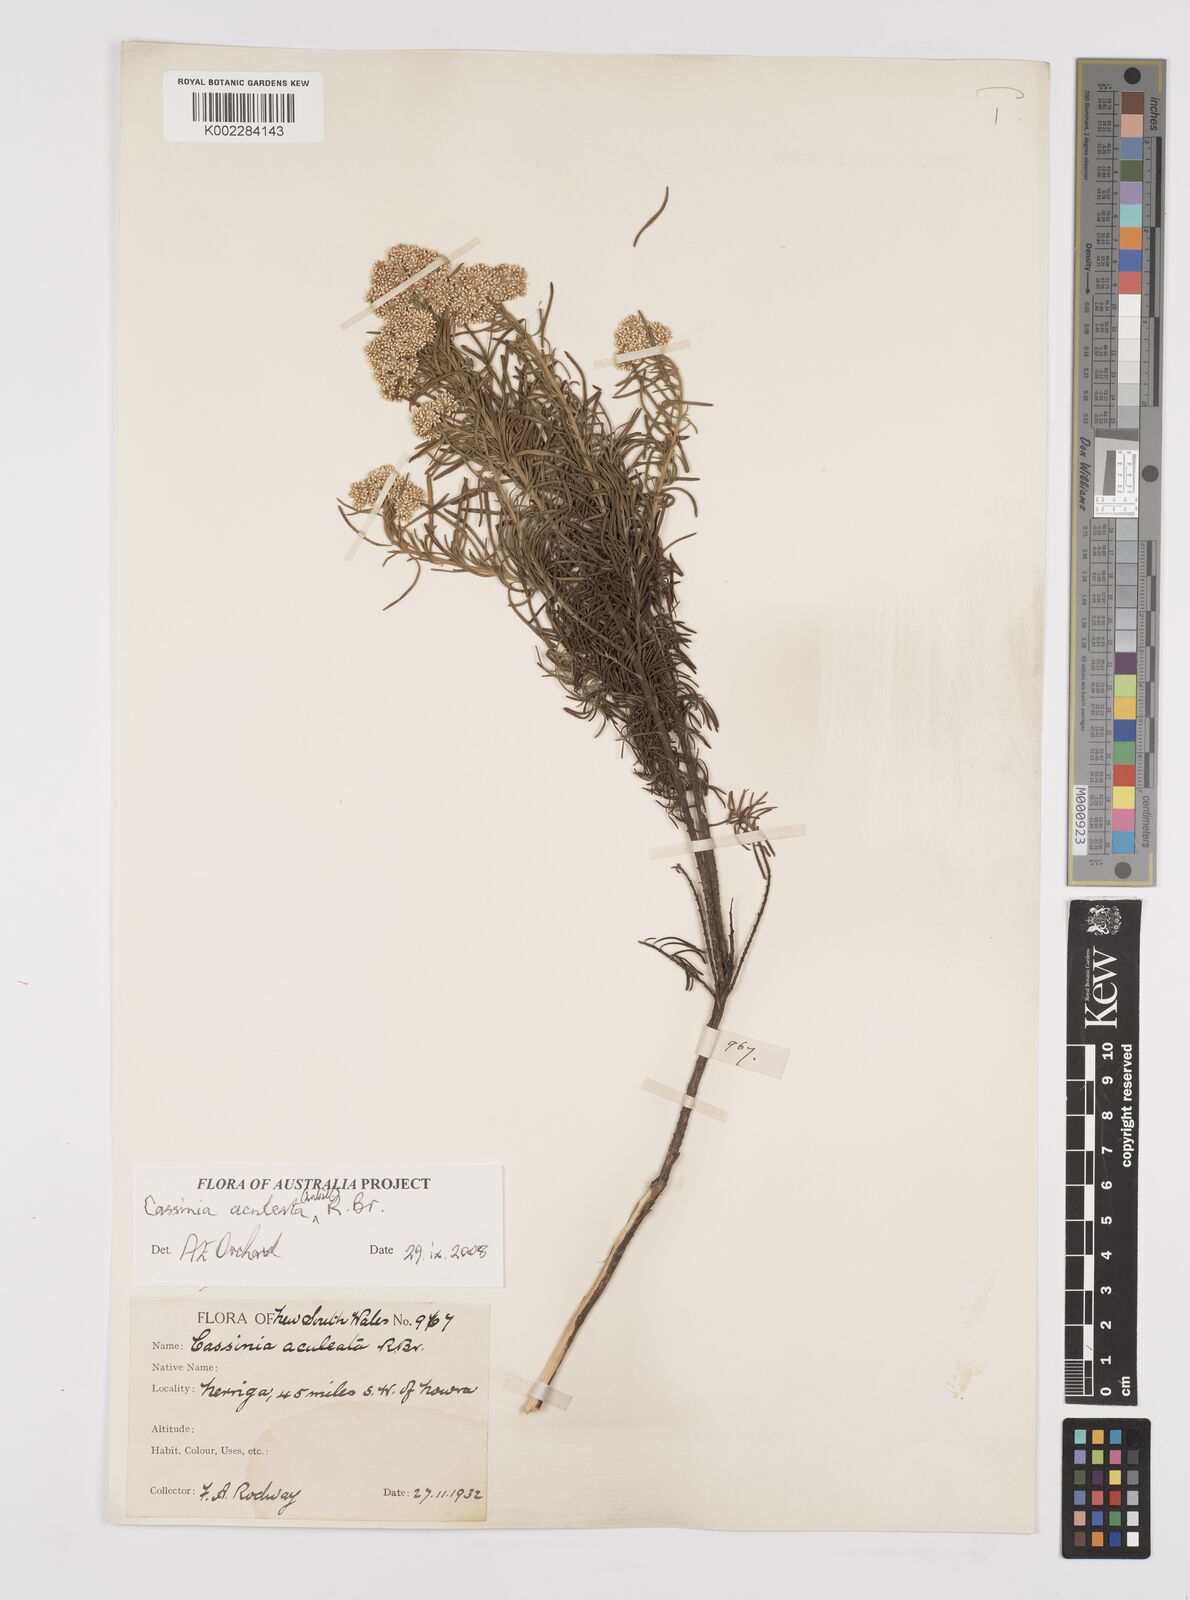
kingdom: Plantae
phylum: Tracheophyta
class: Magnoliopsida
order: Asterales
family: Asteraceae
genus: Cassinia
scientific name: Cassinia aculeata
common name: Australian tauhinu
